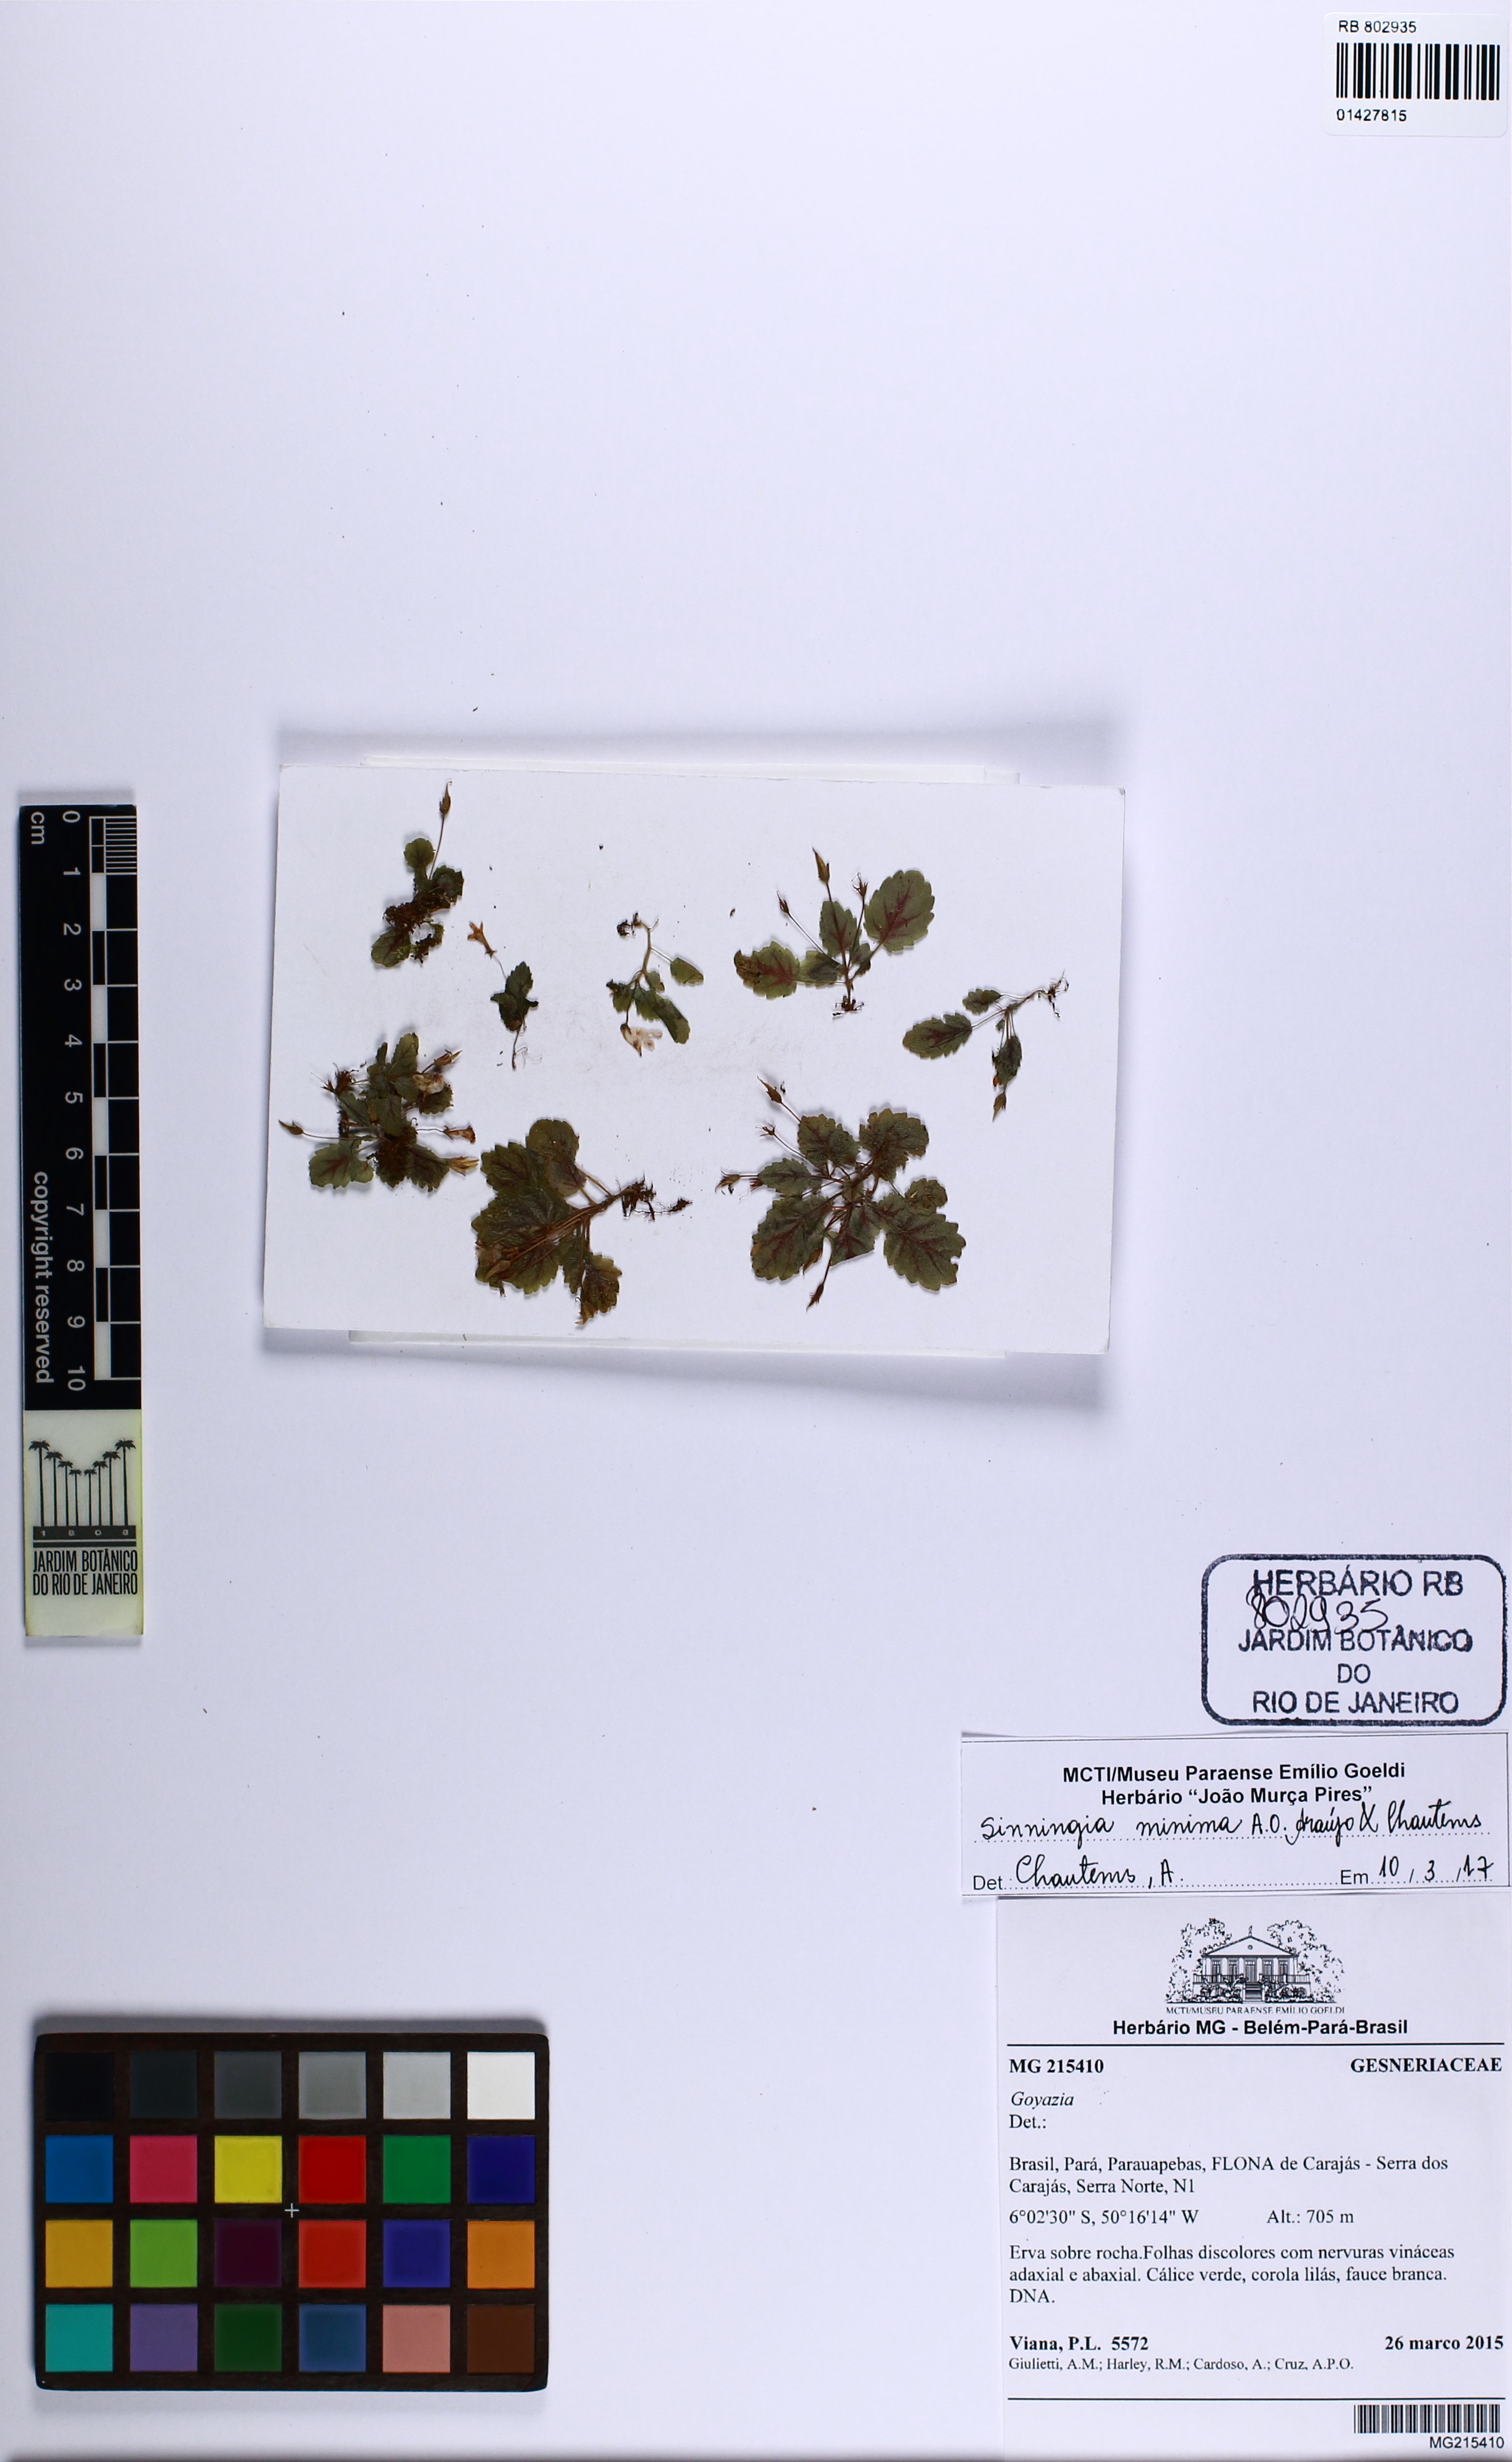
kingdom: Plantae
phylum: Tracheophyta
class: Magnoliopsida
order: Lamiales
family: Gesneriaceae
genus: Sinningia
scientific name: Sinningia minima
